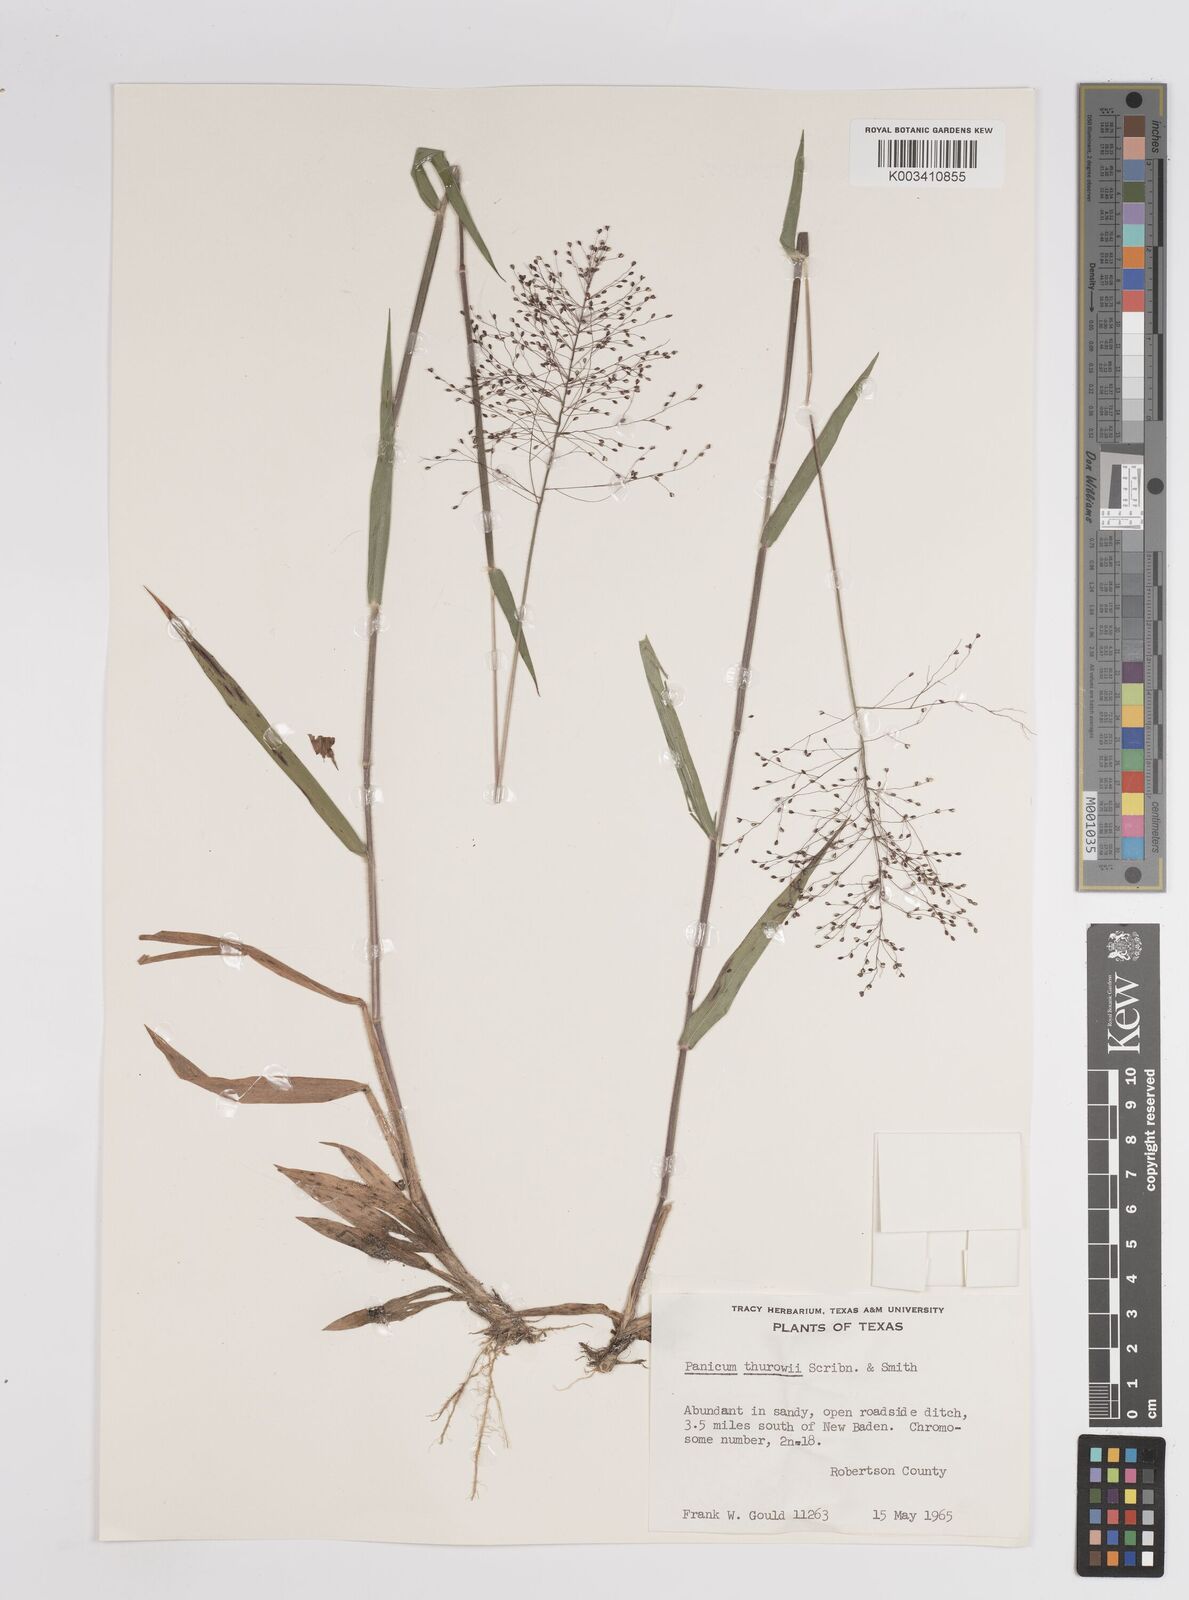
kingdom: Plantae
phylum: Tracheophyta
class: Liliopsida
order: Poales
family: Poaceae
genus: Dichanthelium
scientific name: Dichanthelium acuminatum
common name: Hairy panic grass
